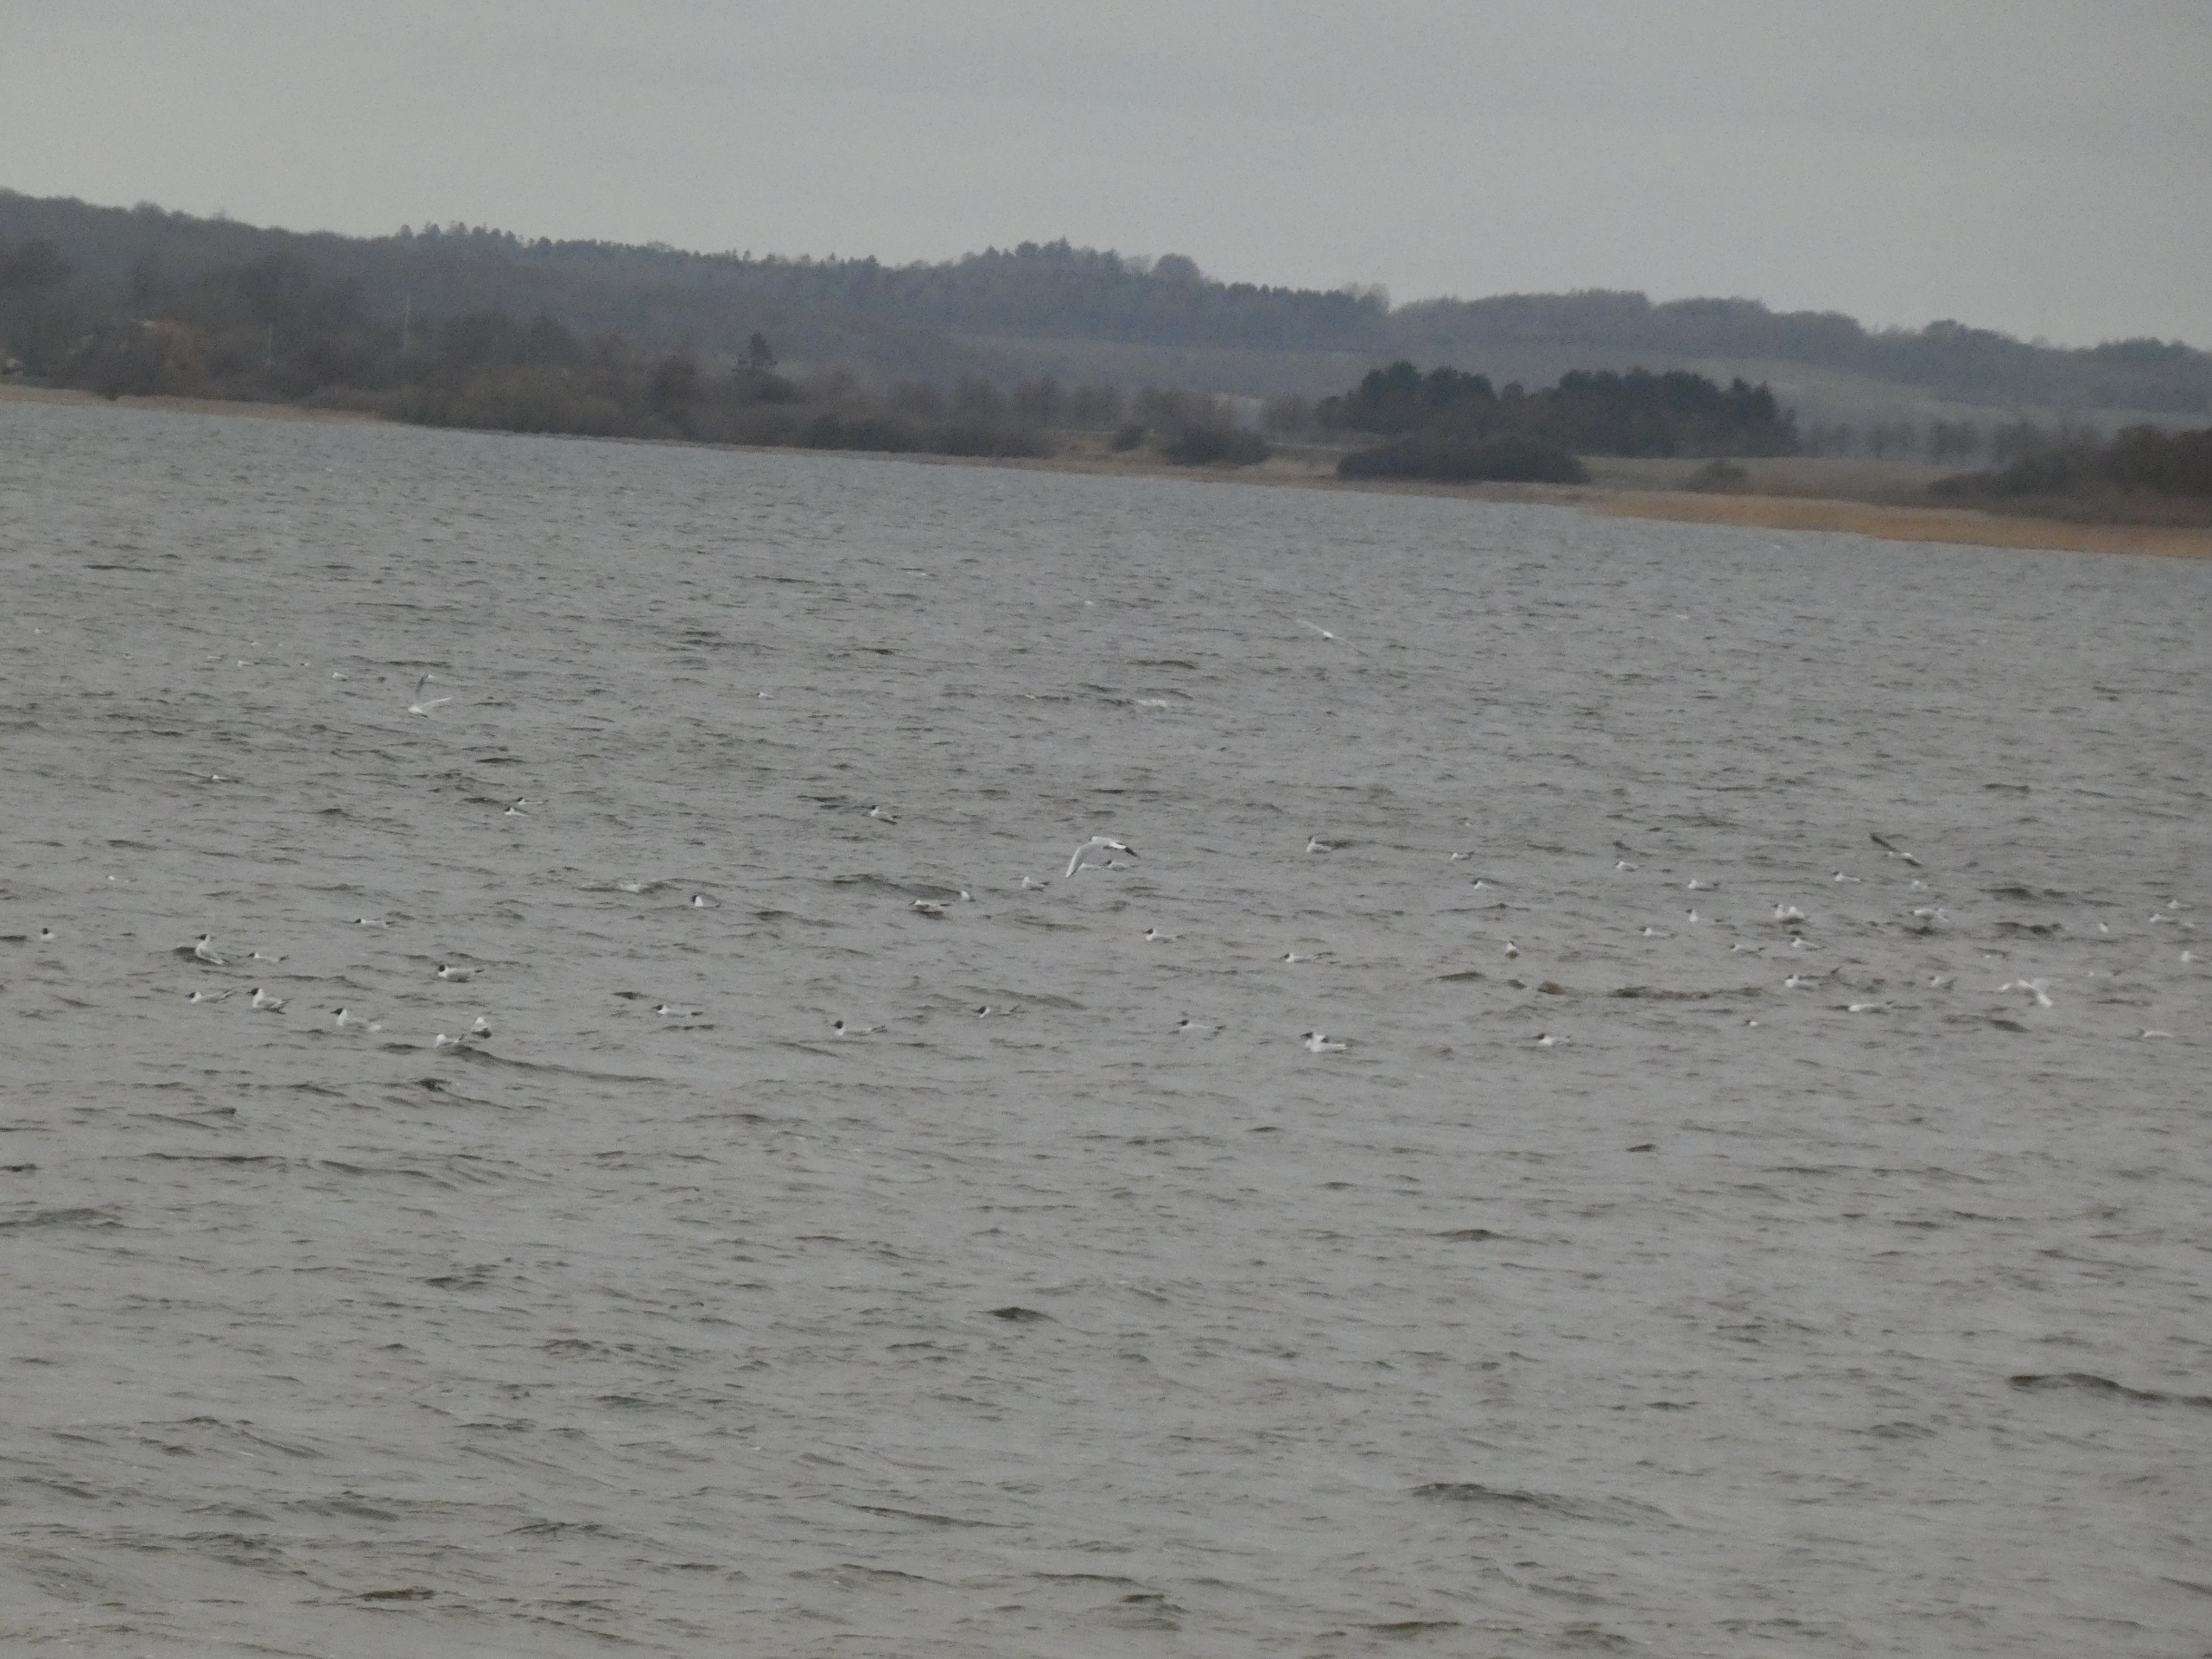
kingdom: Animalia
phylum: Chordata
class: Aves
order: Charadriiformes
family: Laridae
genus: Chroicocephalus
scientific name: Chroicocephalus ridibundus
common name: Hættemåge
